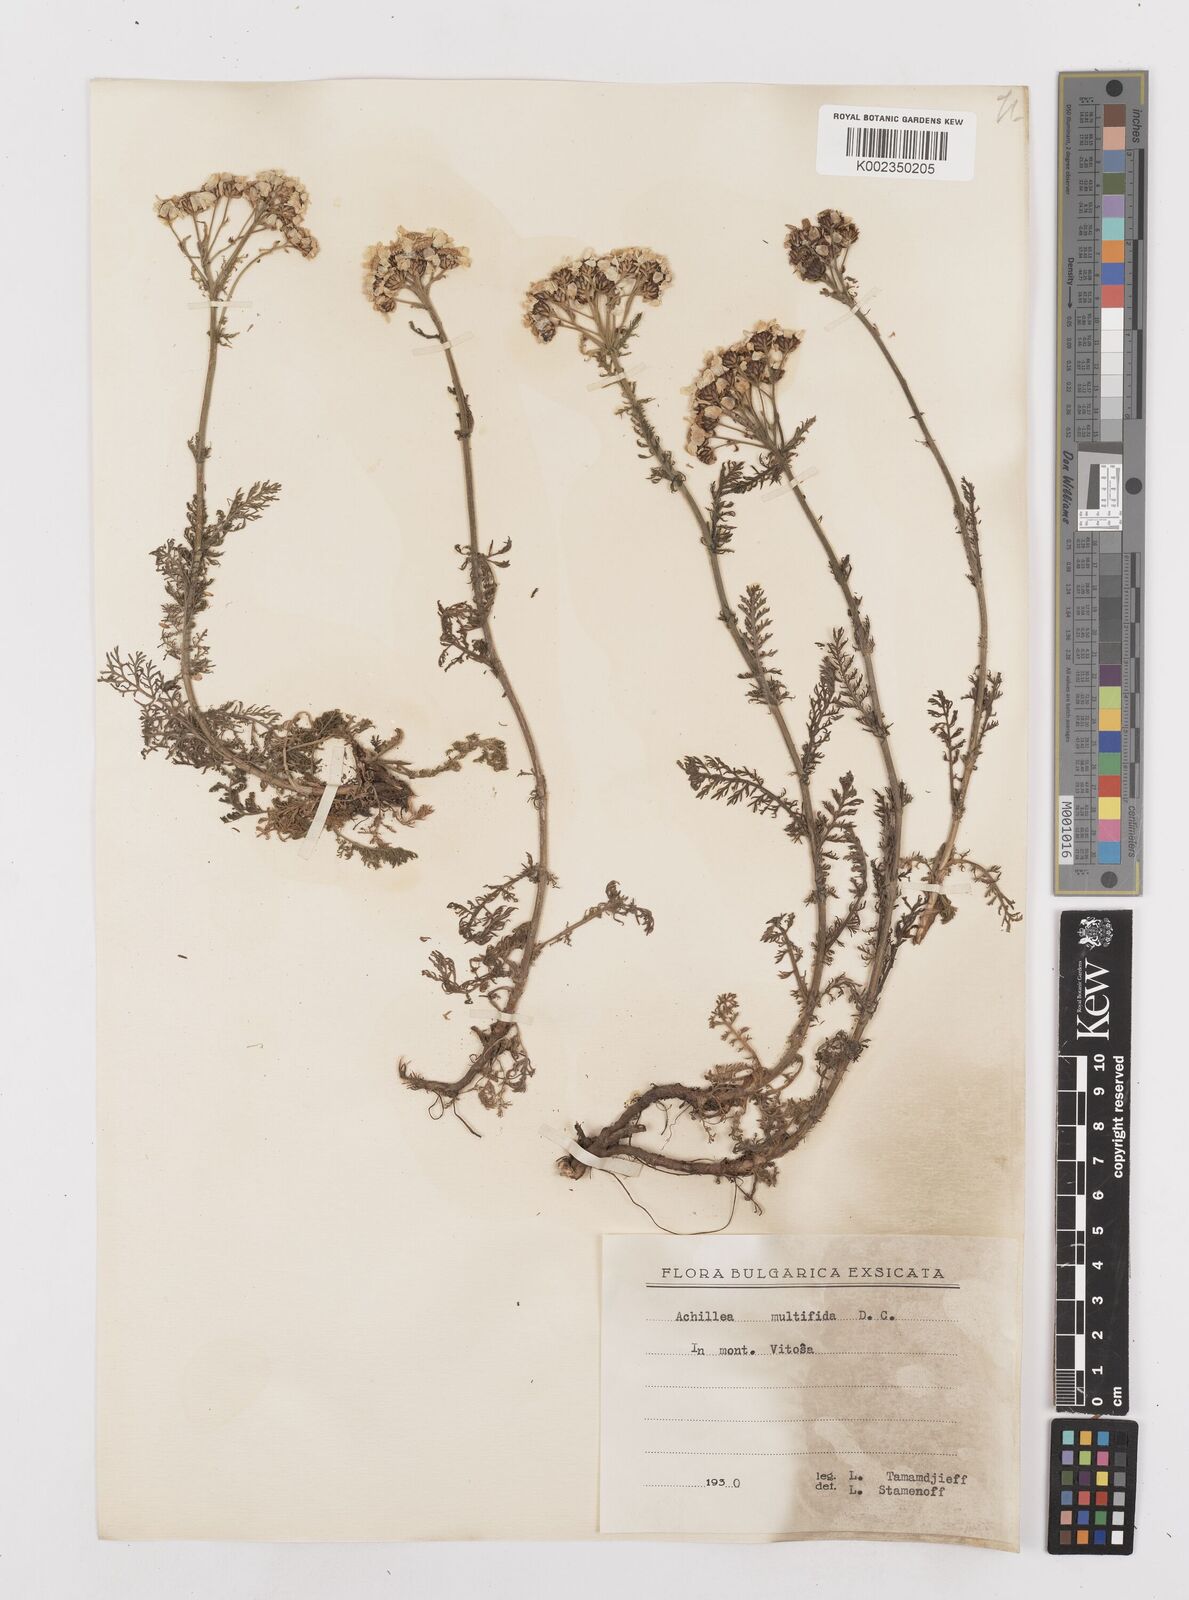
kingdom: Plantae
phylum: Tracheophyta
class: Magnoliopsida
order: Asterales
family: Asteraceae
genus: Achillea
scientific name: Achillea multifida
